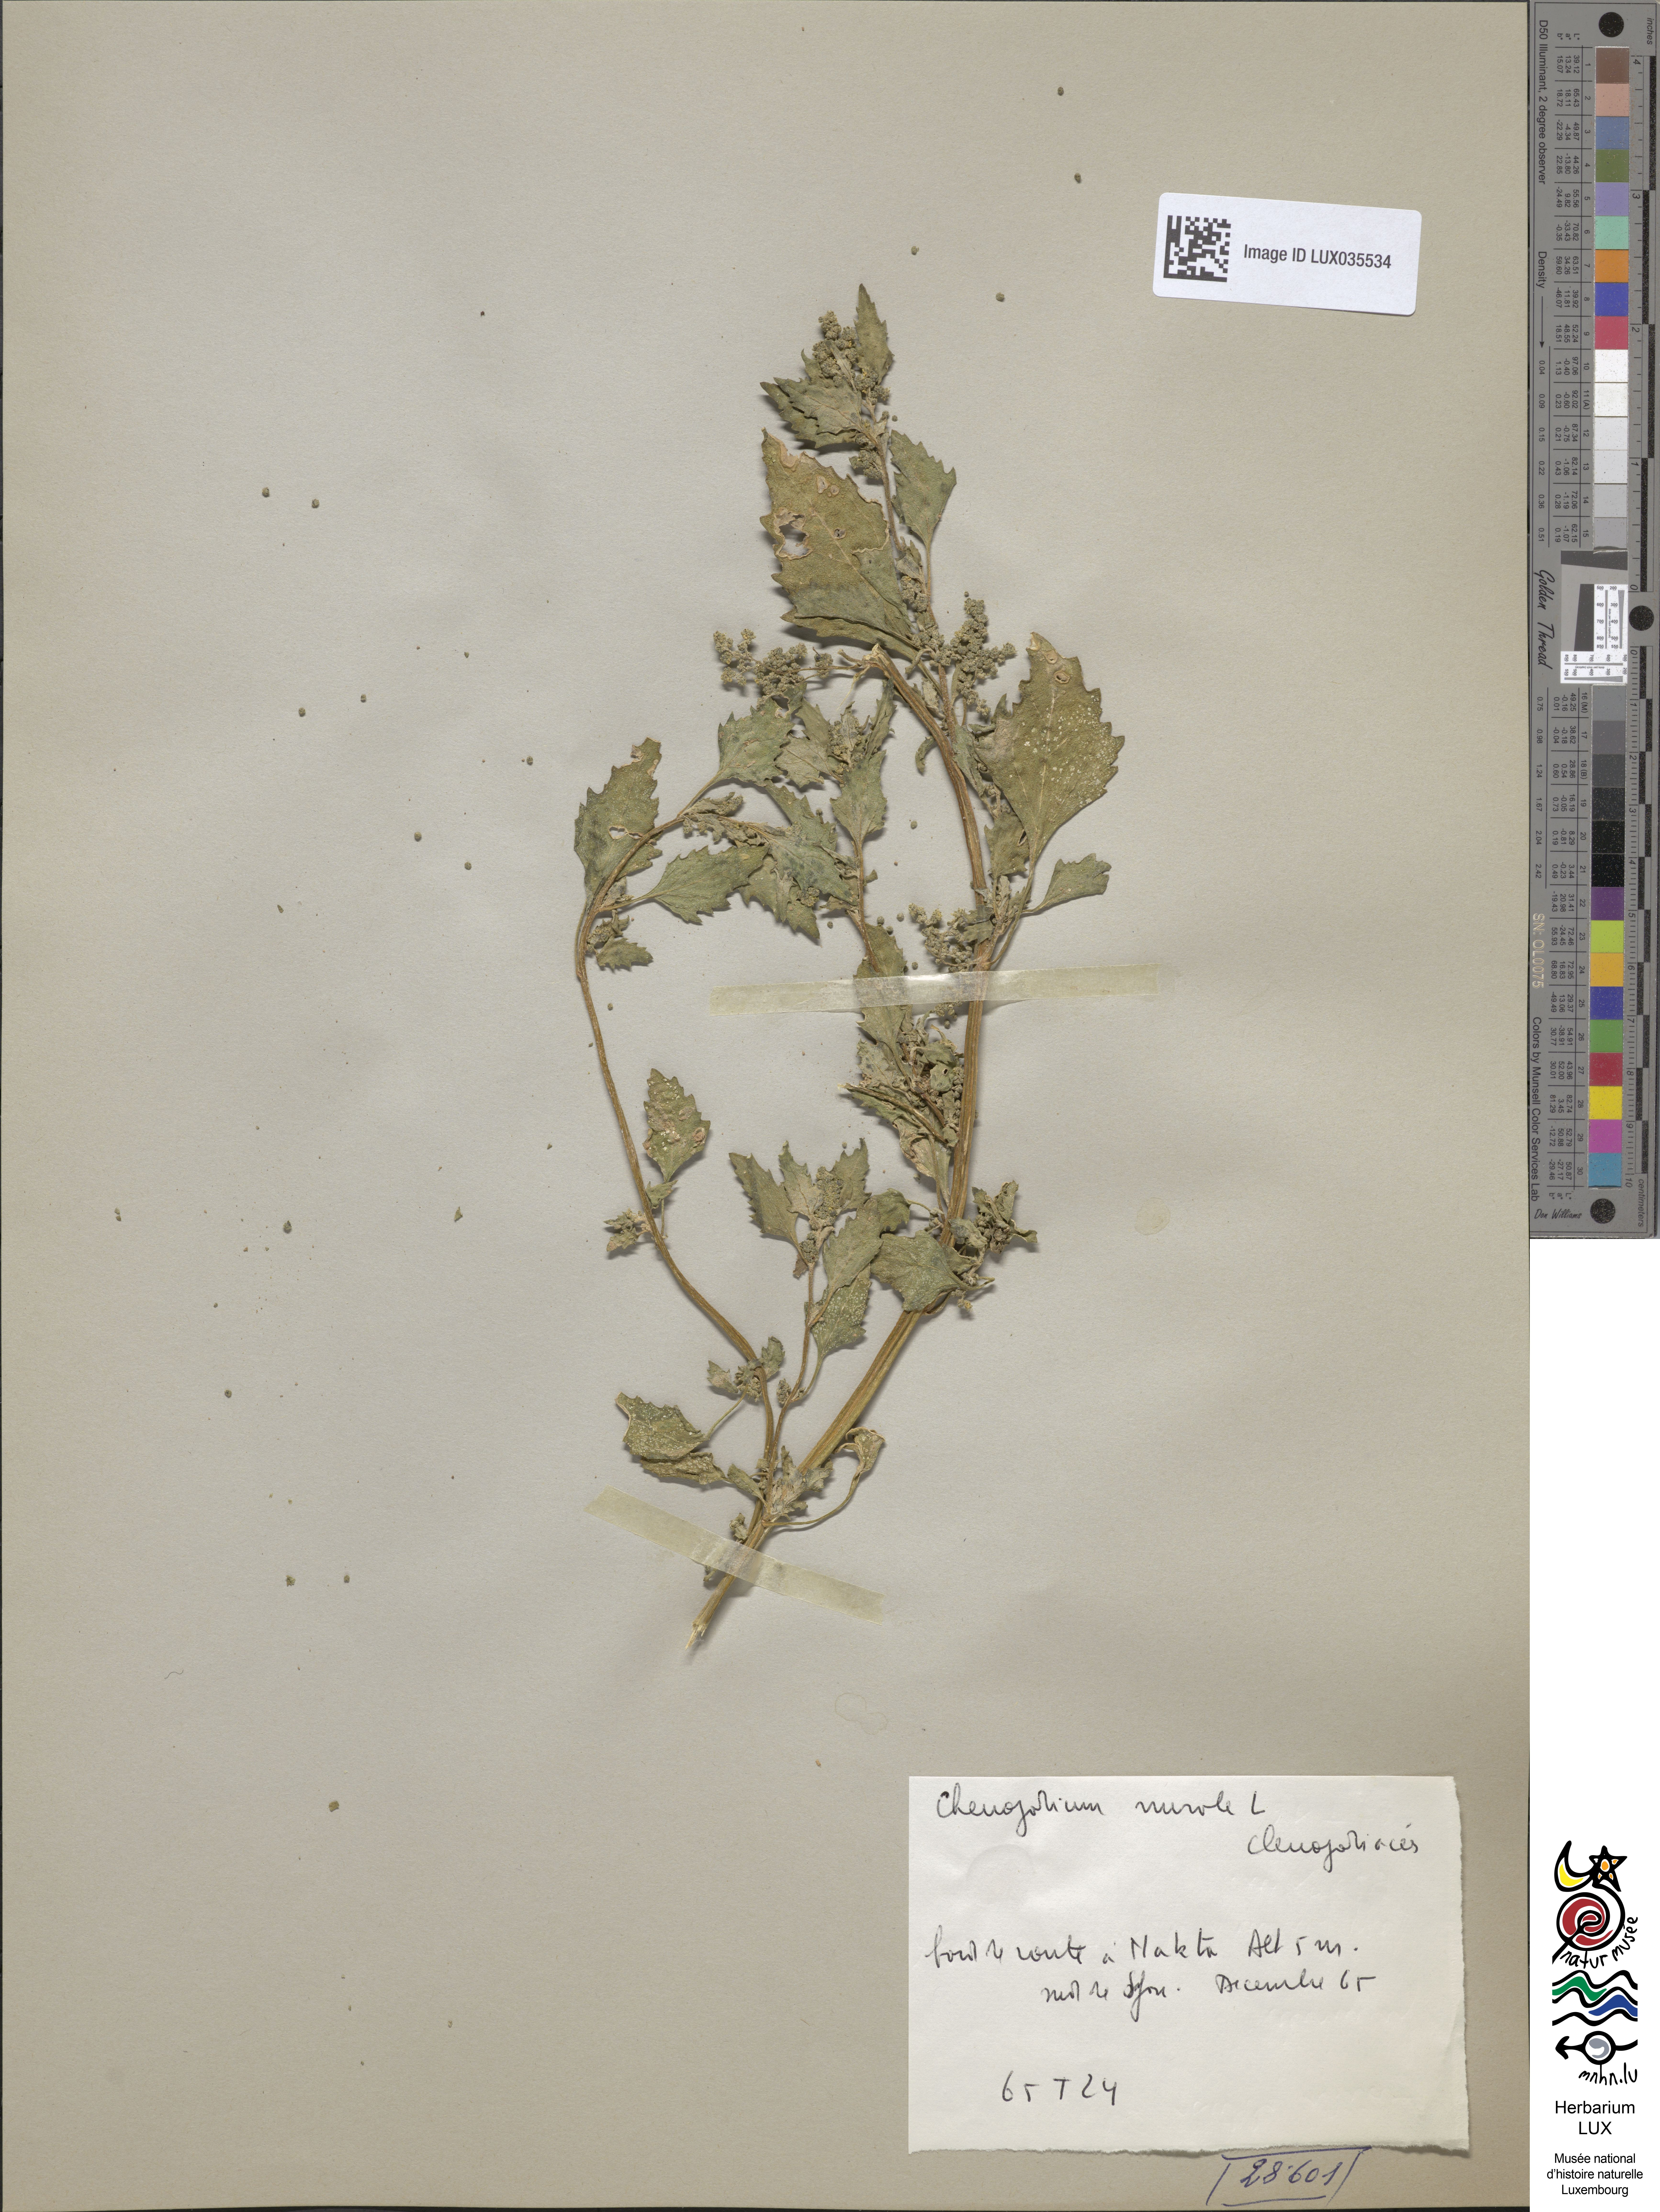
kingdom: Plantae
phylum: Tracheophyta
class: Magnoliopsida
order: Caryophyllales
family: Amaranthaceae
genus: Chenopodiastrum
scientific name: Chenopodiastrum murale
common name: Sowbane
